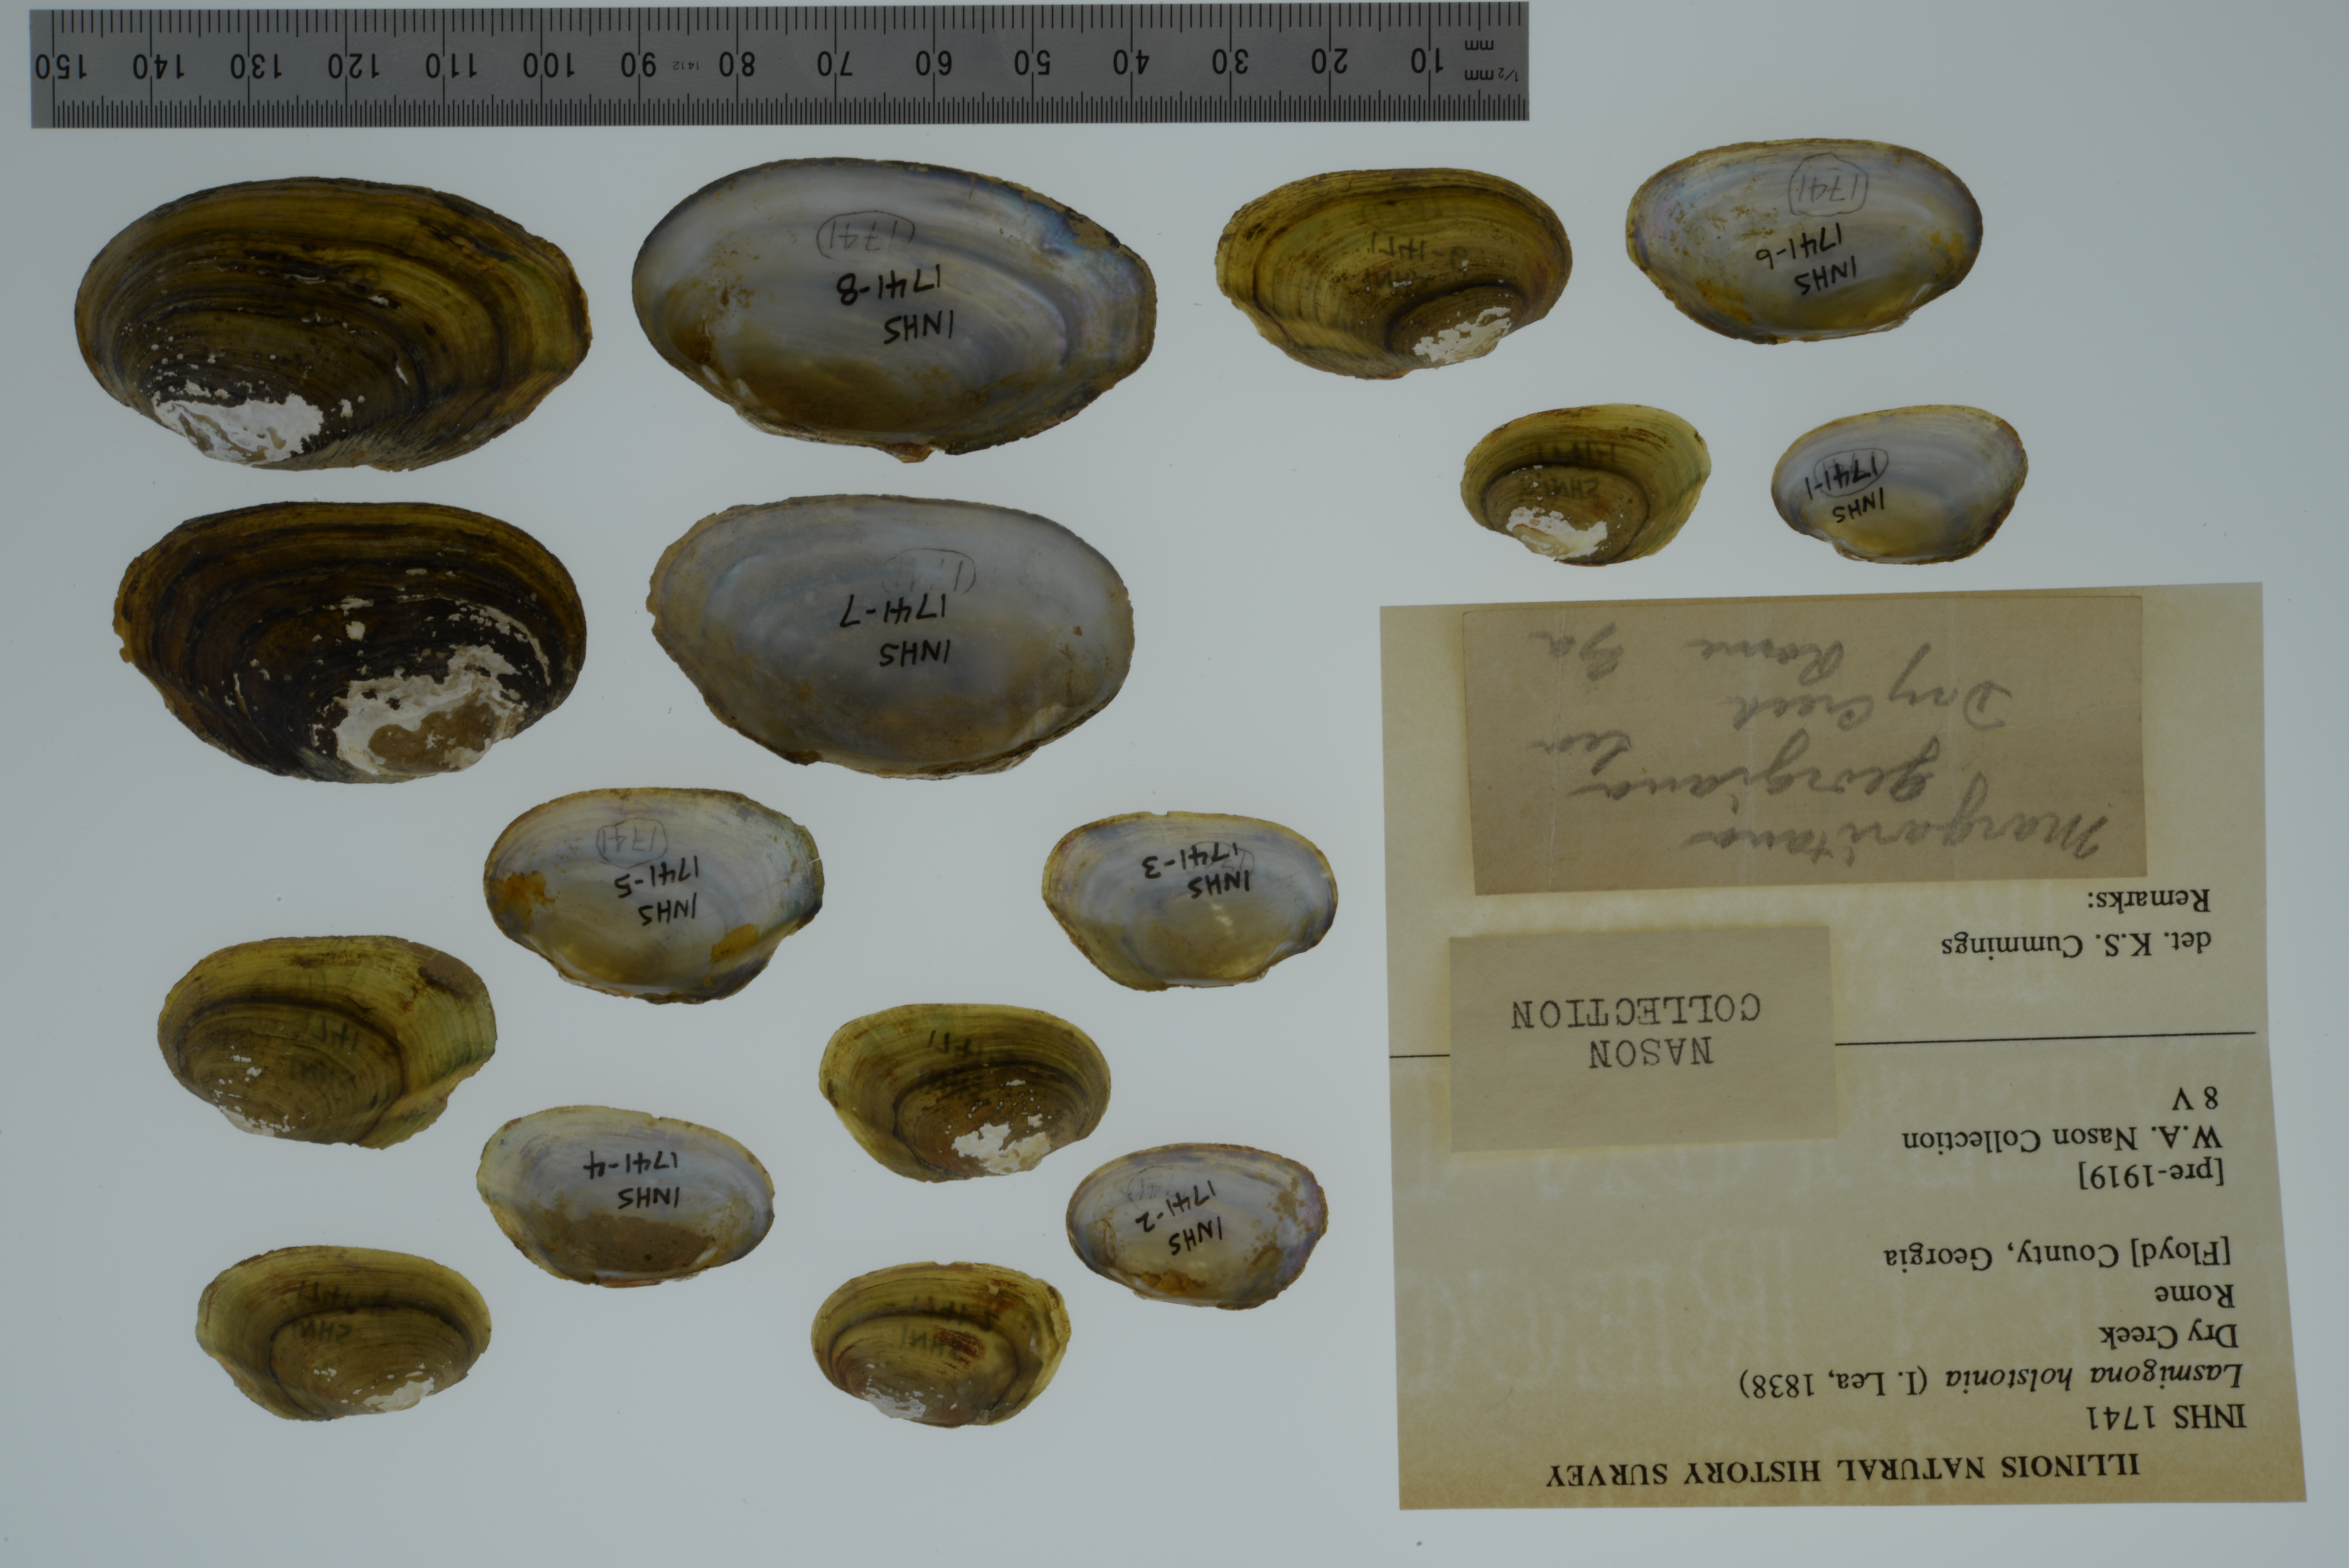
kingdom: Animalia
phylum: Mollusca
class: Bivalvia
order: Unionida
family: Unionidae
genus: Lasmigona
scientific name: Lasmigona holstonia
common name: Tennessee heelsplitter
